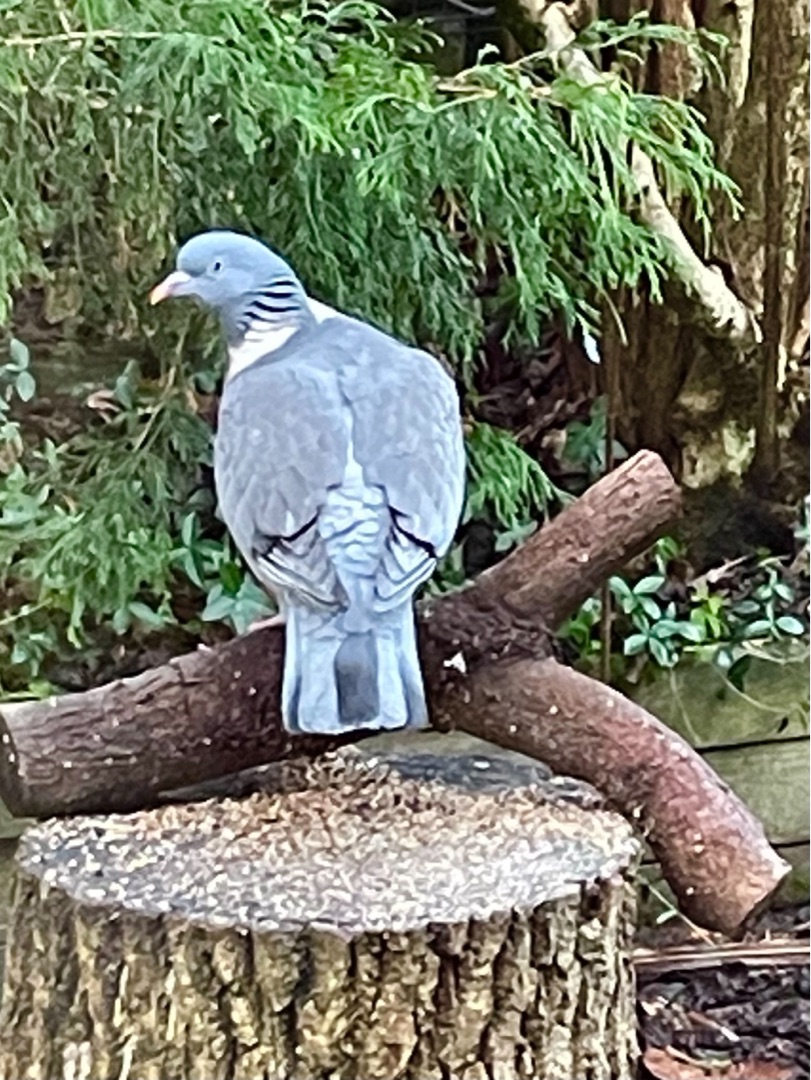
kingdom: Animalia
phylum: Chordata
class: Aves
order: Columbiformes
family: Columbidae
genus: Columba
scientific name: Columba palumbus
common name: Ringdue
